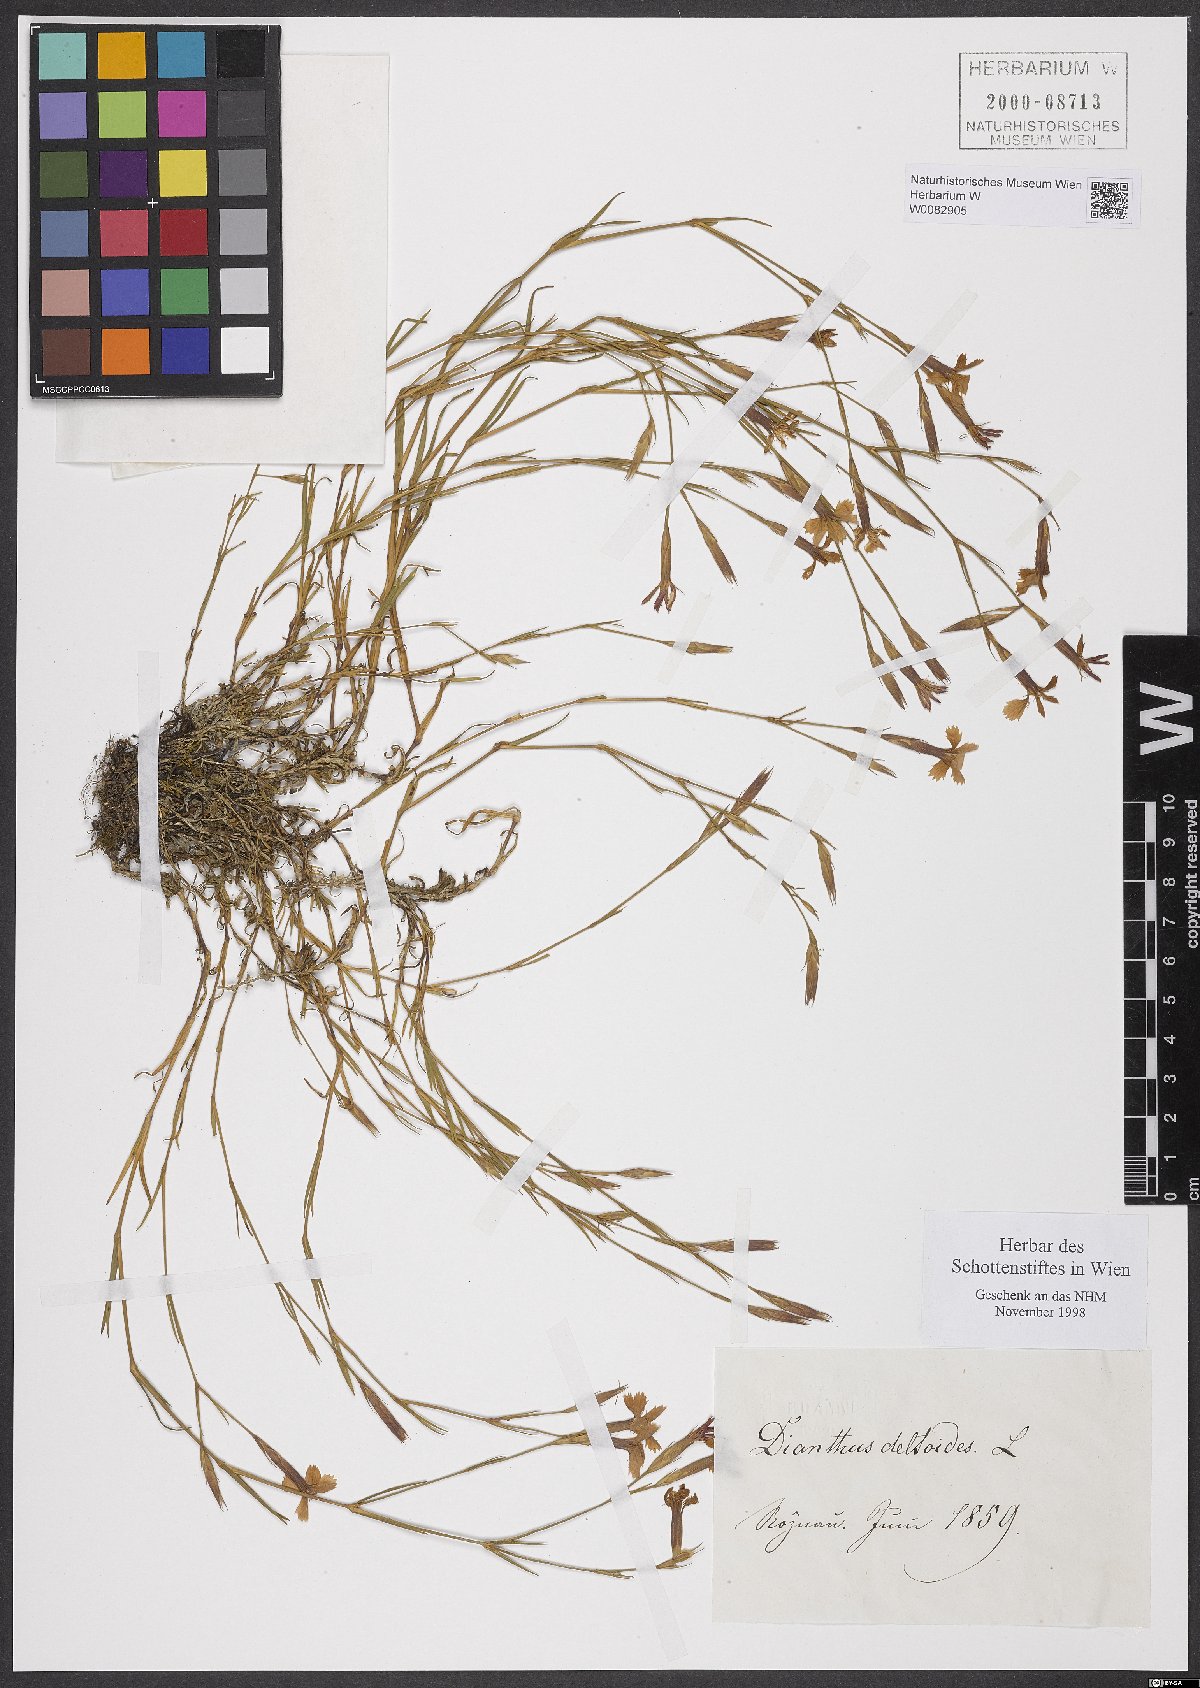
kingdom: Plantae
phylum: Tracheophyta
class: Magnoliopsida
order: Caryophyllales
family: Caryophyllaceae
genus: Dianthus
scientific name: Dianthus deltoides
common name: Maiden pink
